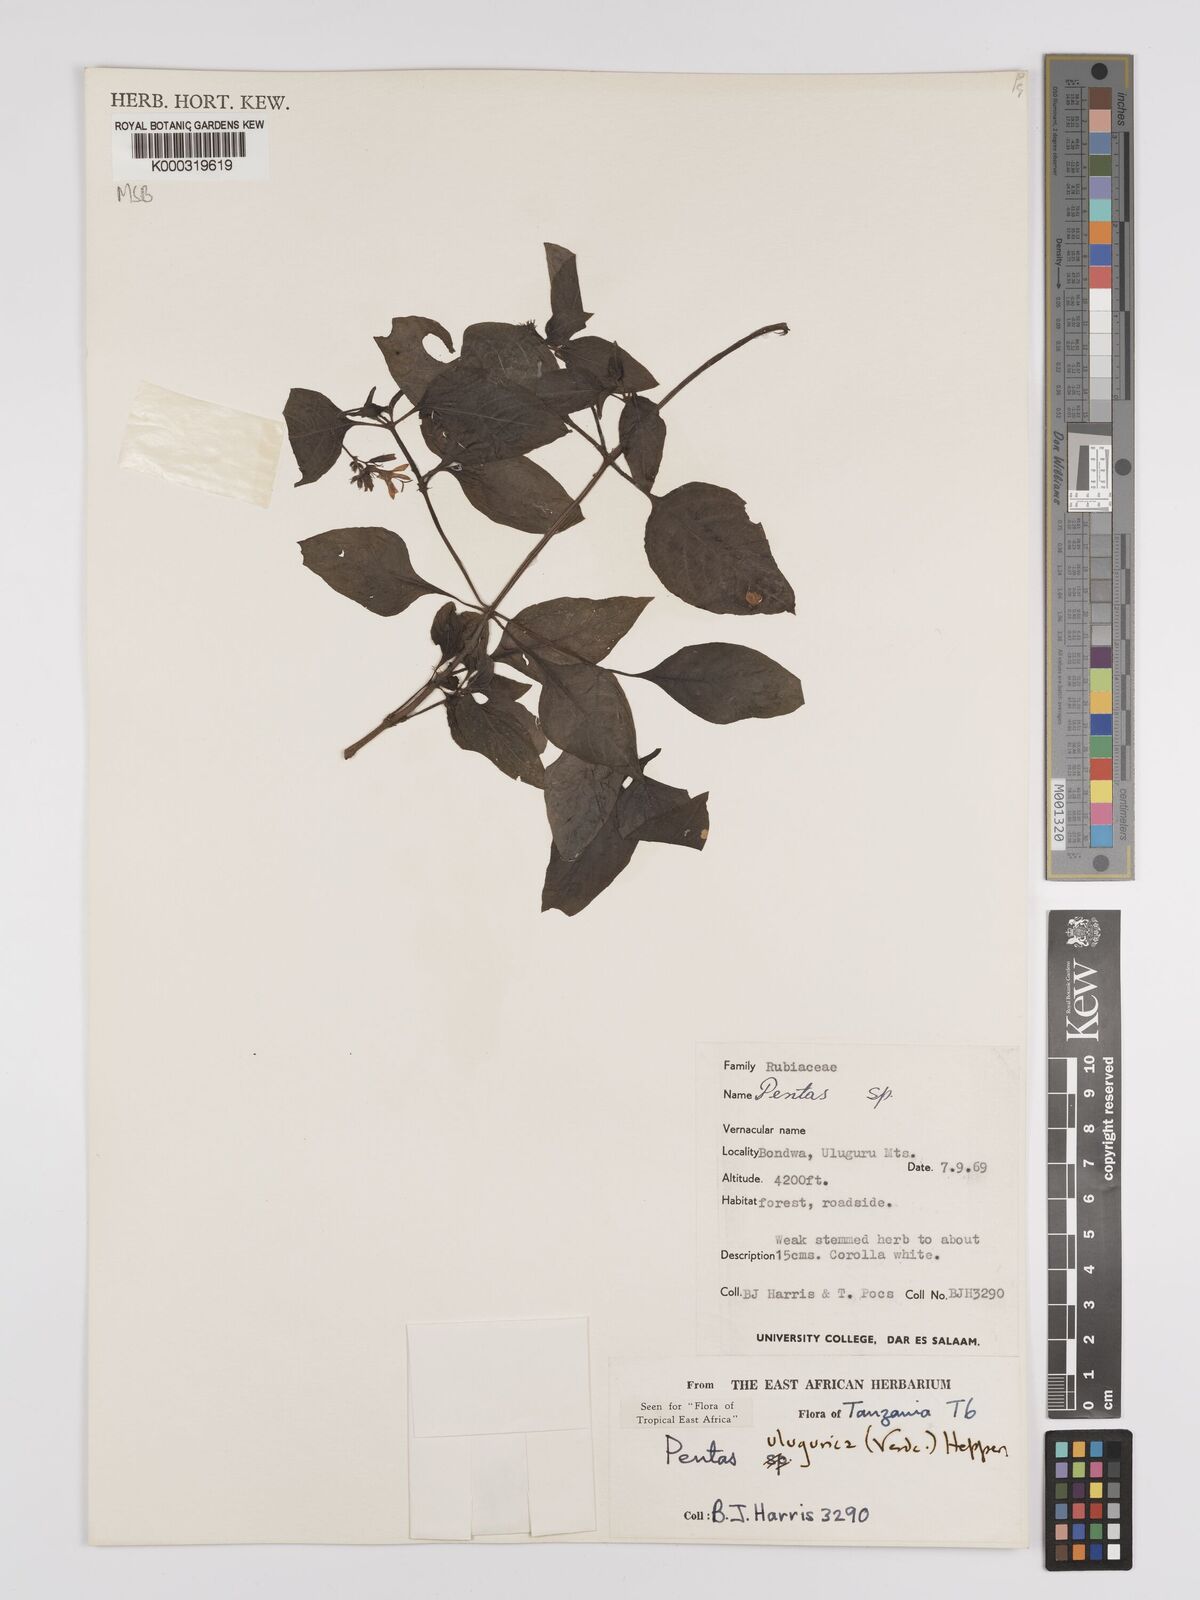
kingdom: Plantae
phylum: Tracheophyta
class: Magnoliopsida
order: Gentianales
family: Rubiaceae
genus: Phyllopentas
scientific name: Phyllopentas ulugurica
